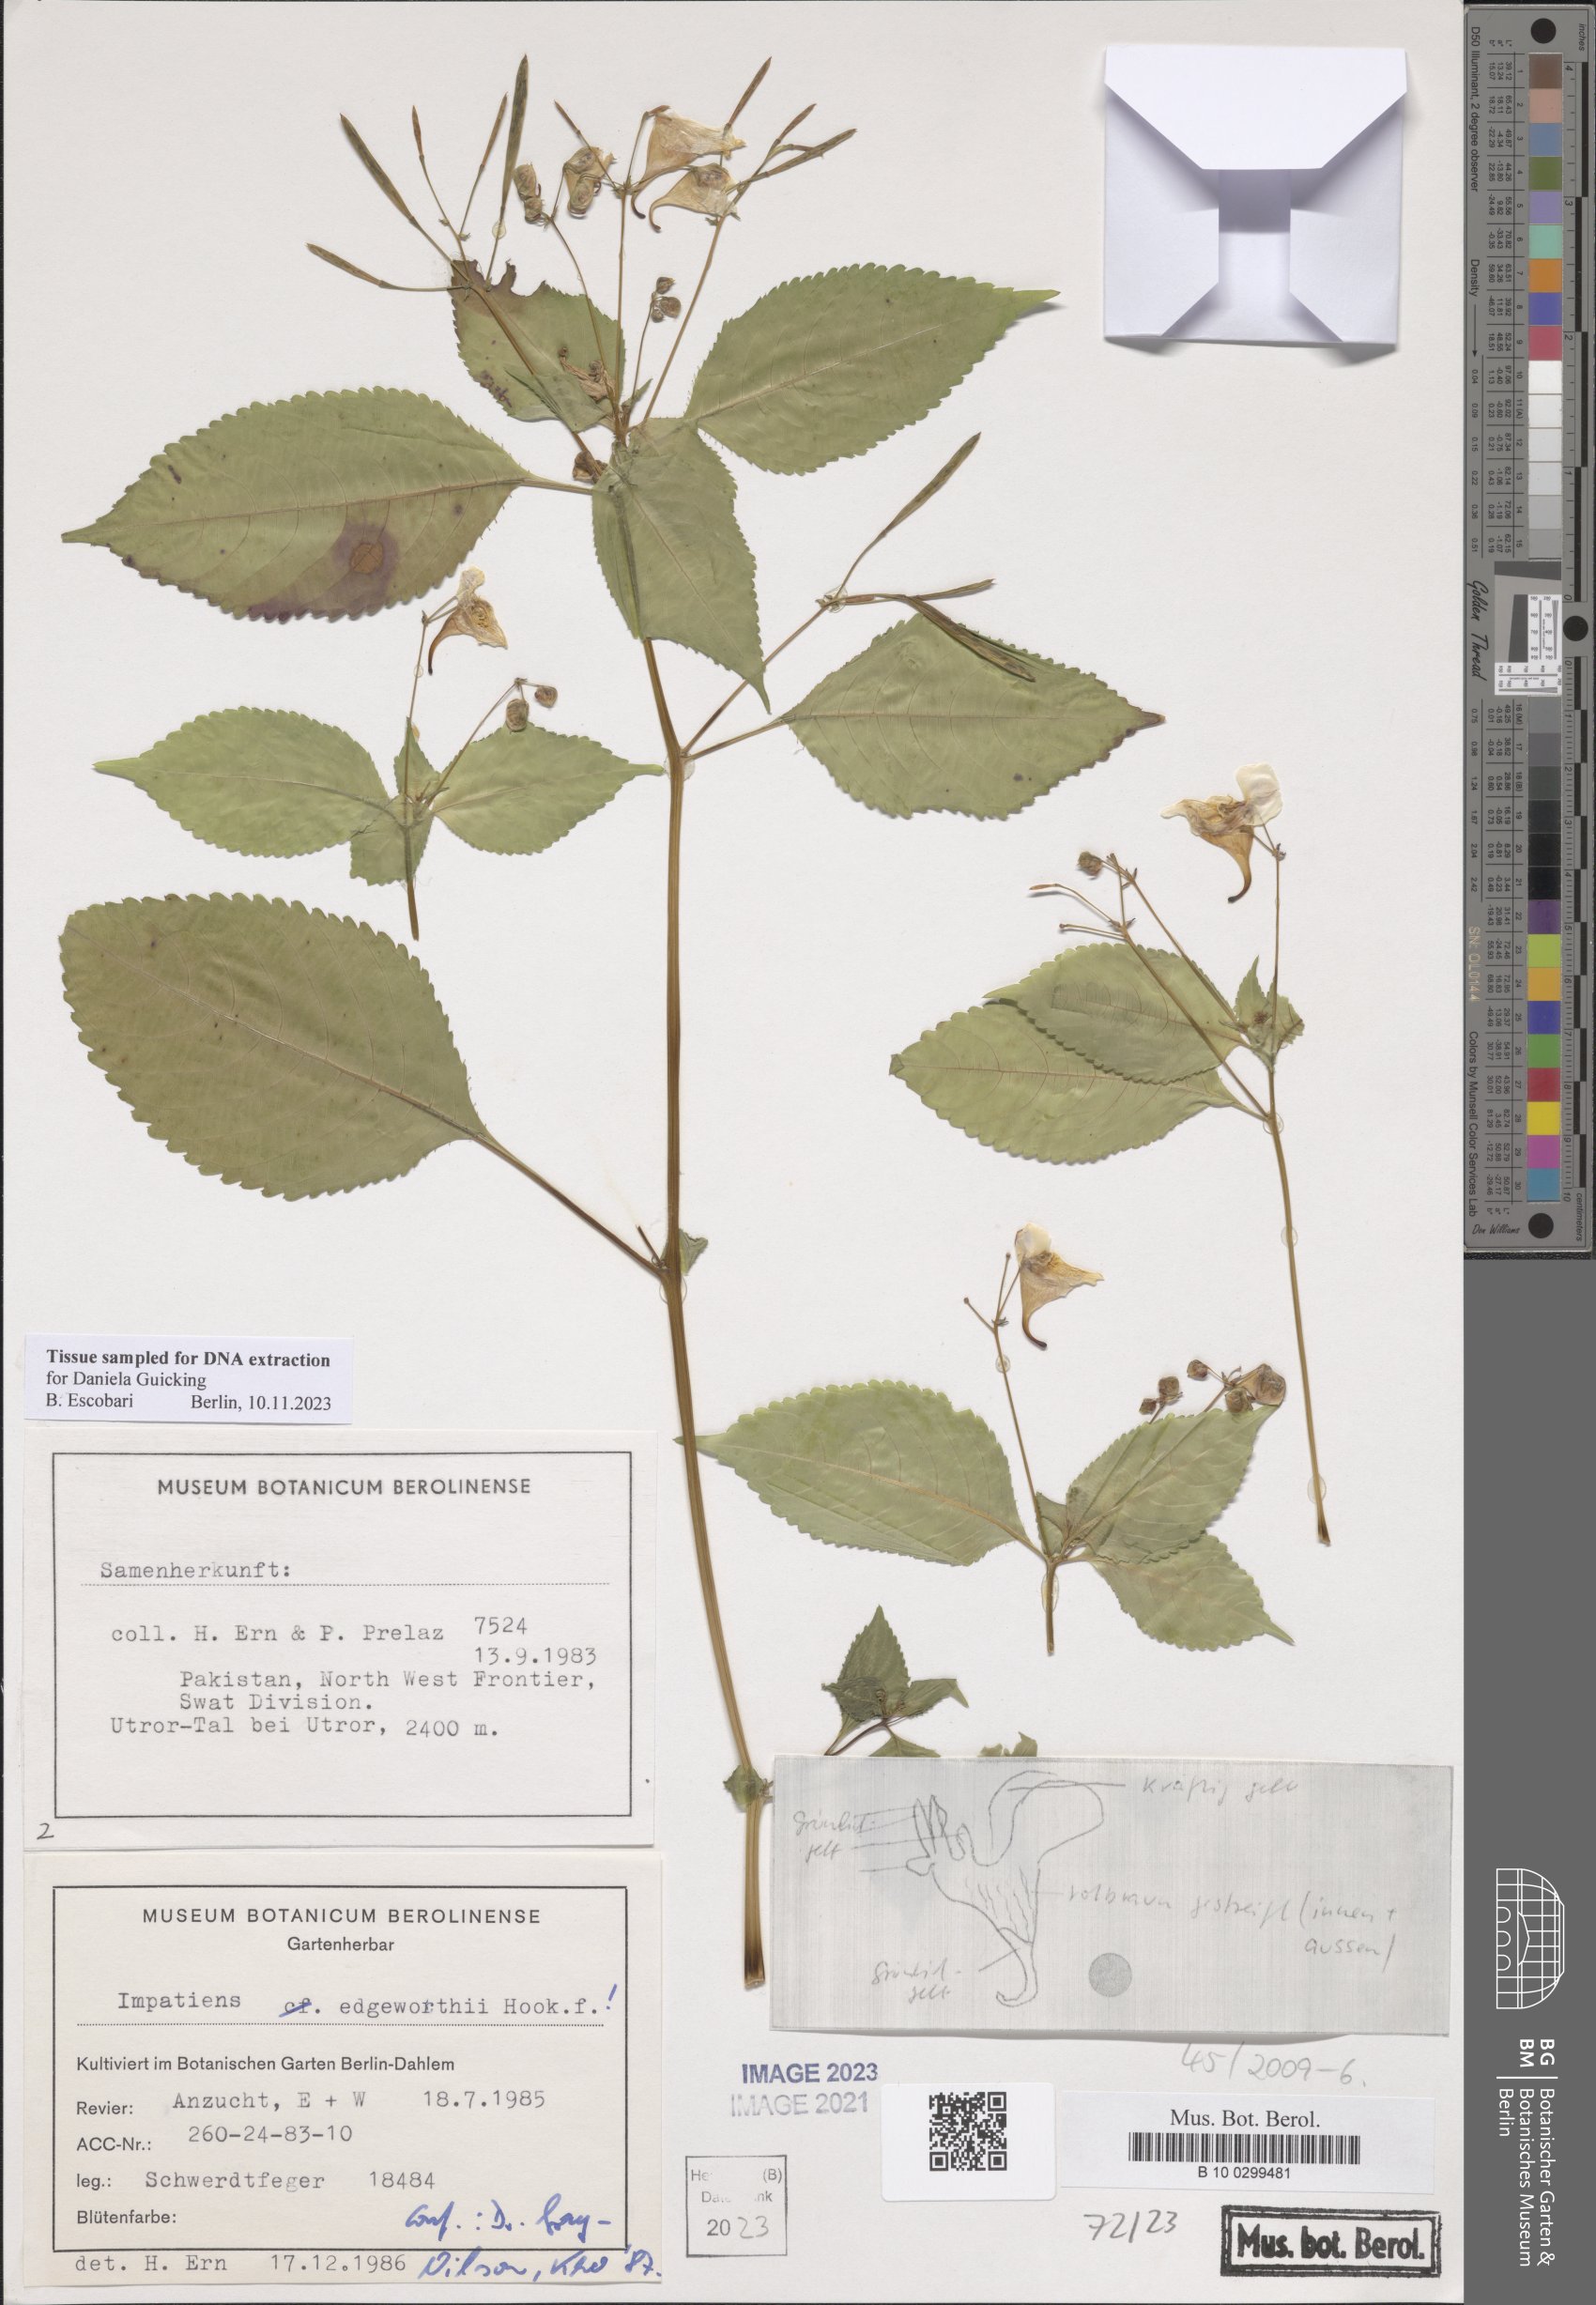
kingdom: Plantae
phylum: Tracheophyta
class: Magnoliopsida
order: Ericales
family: Balsaminaceae
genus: Impatiens
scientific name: Impatiens edgeworthii
